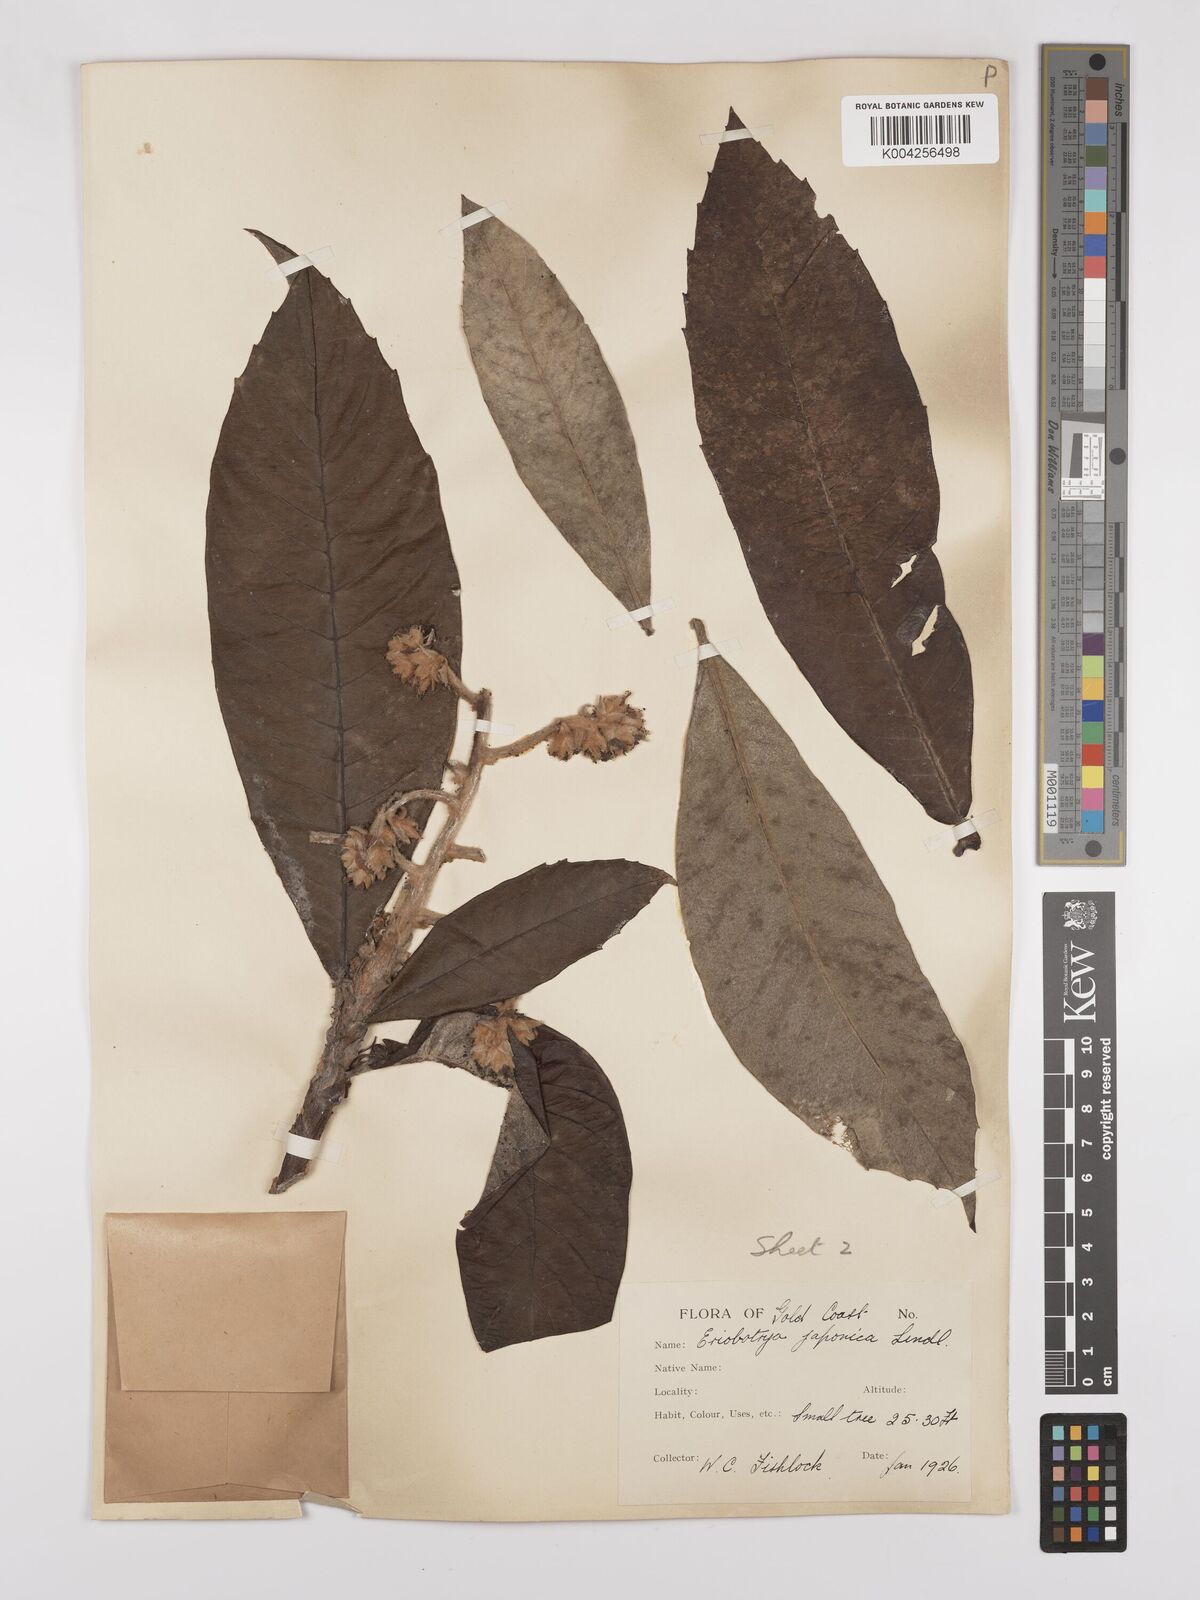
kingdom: Plantae
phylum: Tracheophyta
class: Magnoliopsida
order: Rosales
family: Rosaceae
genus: Rhaphiolepis
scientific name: Rhaphiolepis bibas
